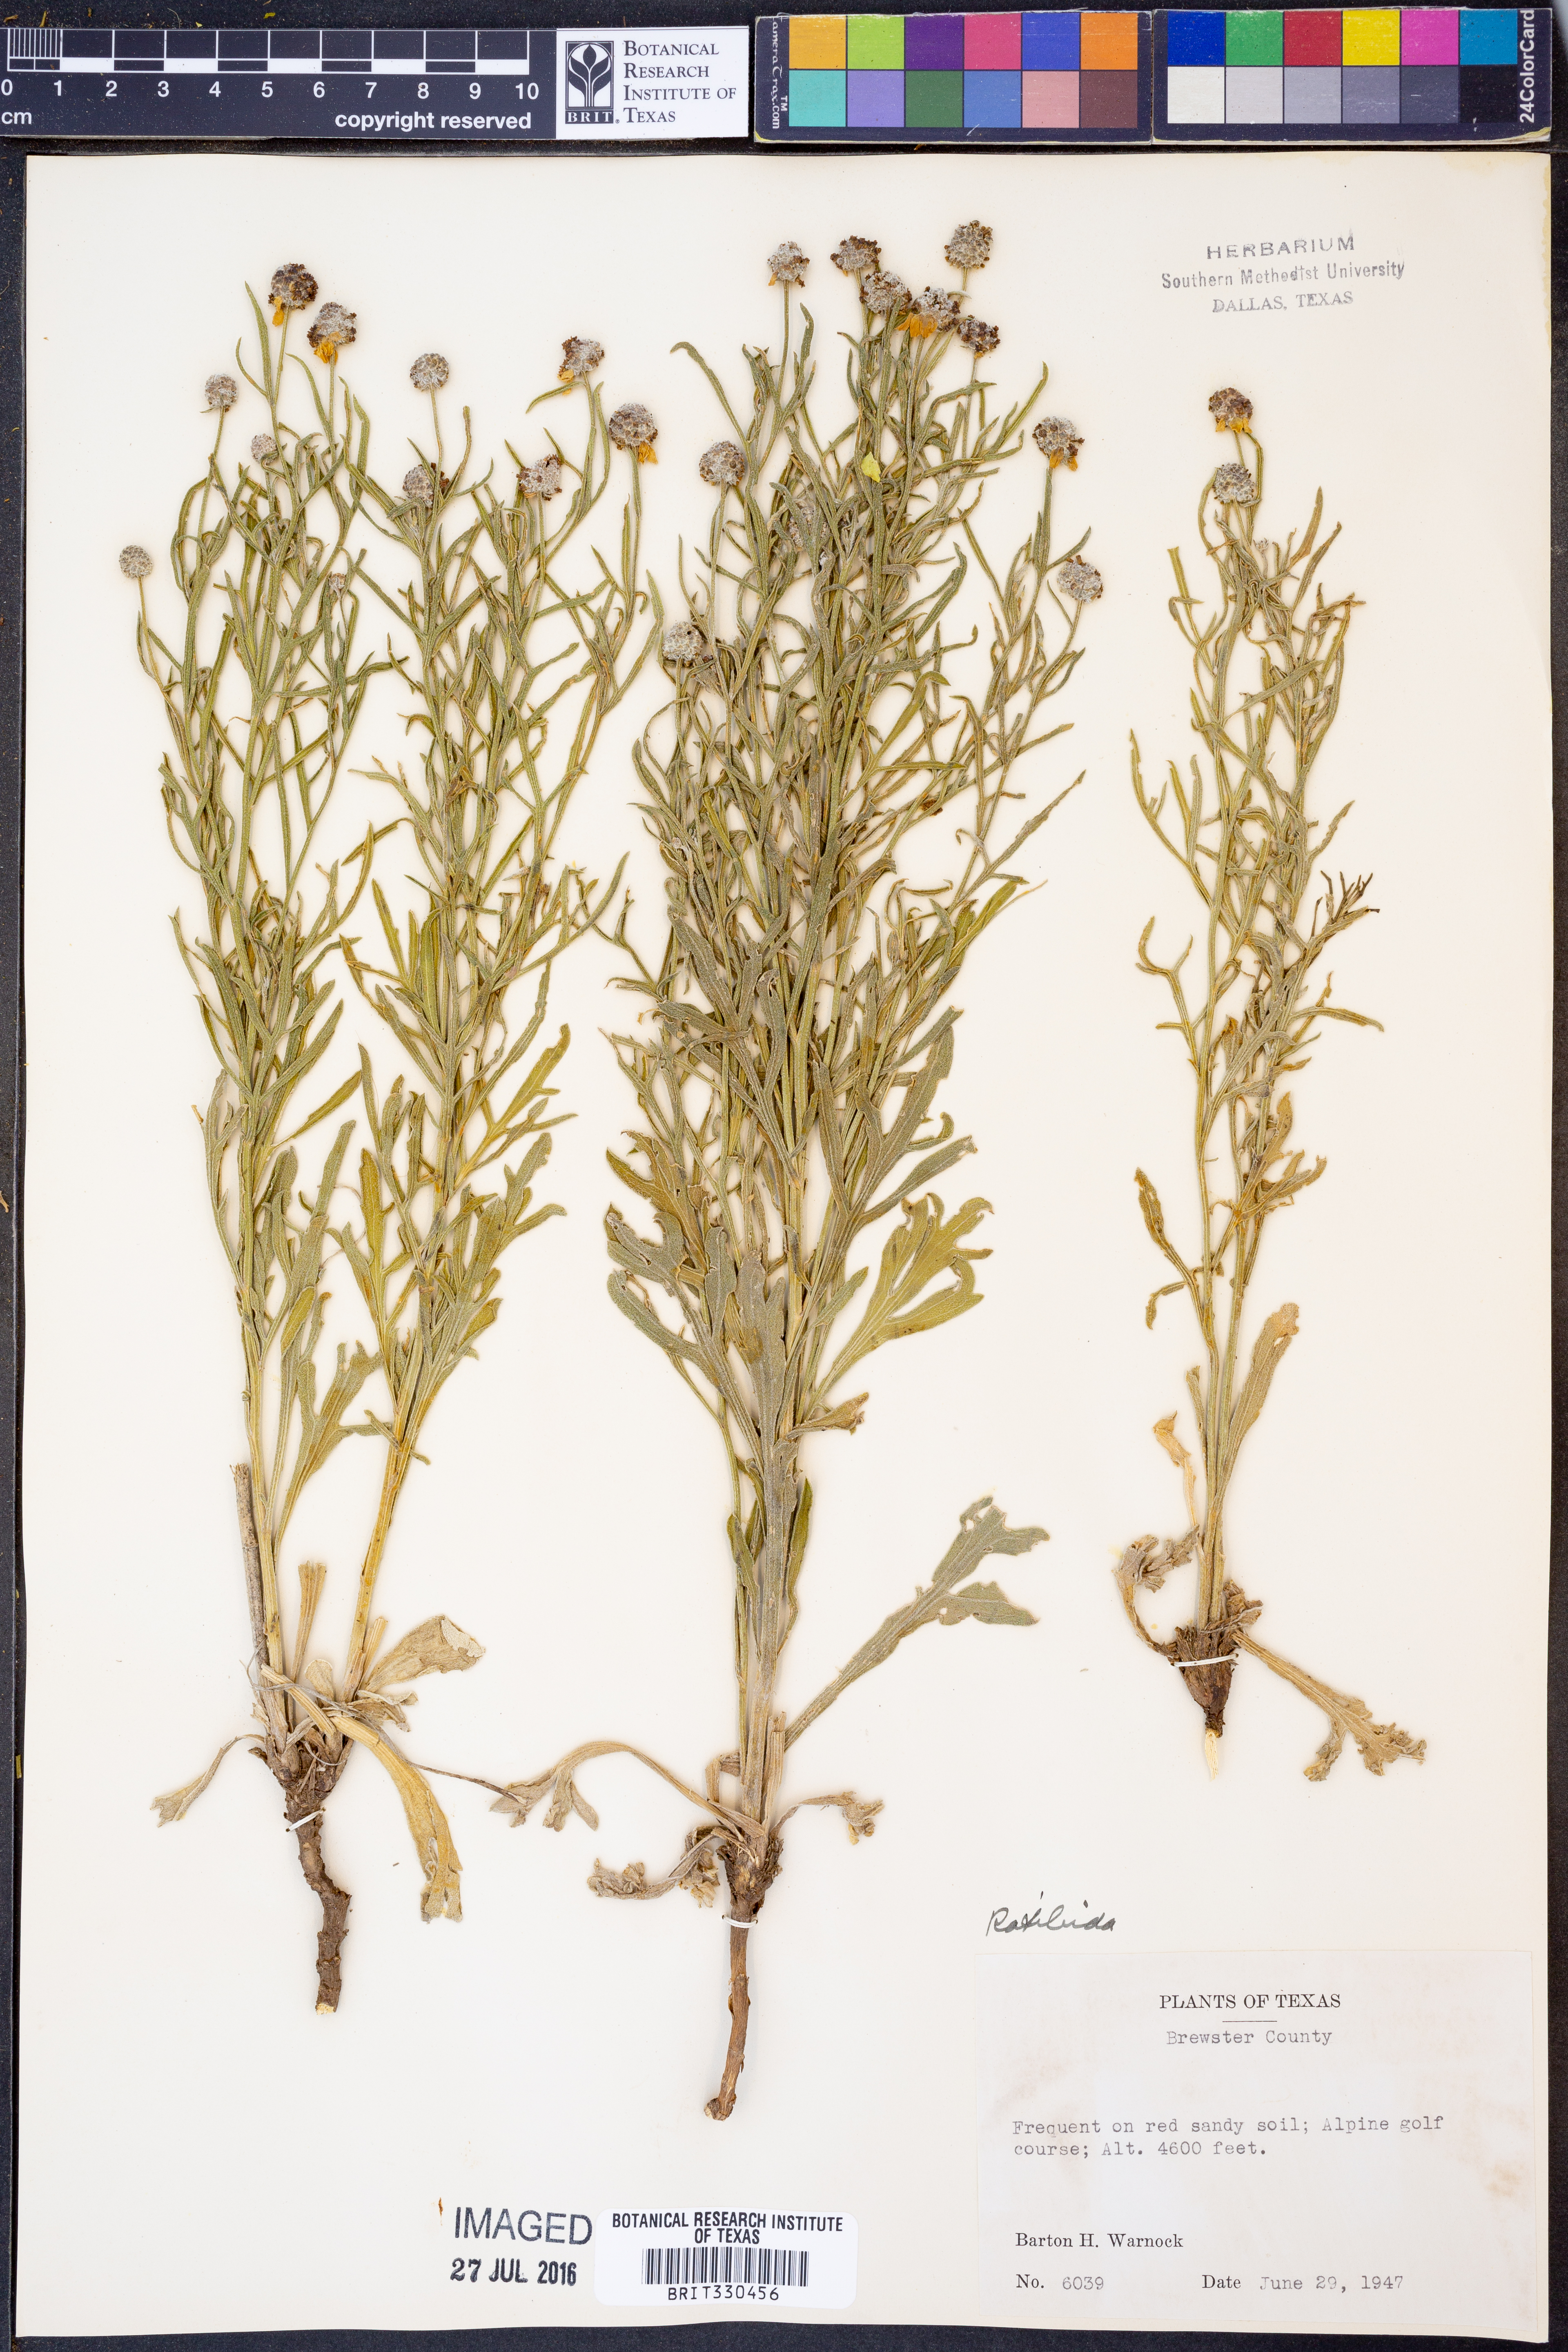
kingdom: Plantae
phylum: Tracheophyta
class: Magnoliopsida
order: Asterales
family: Asteraceae
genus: Ratibida
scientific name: Ratibida
